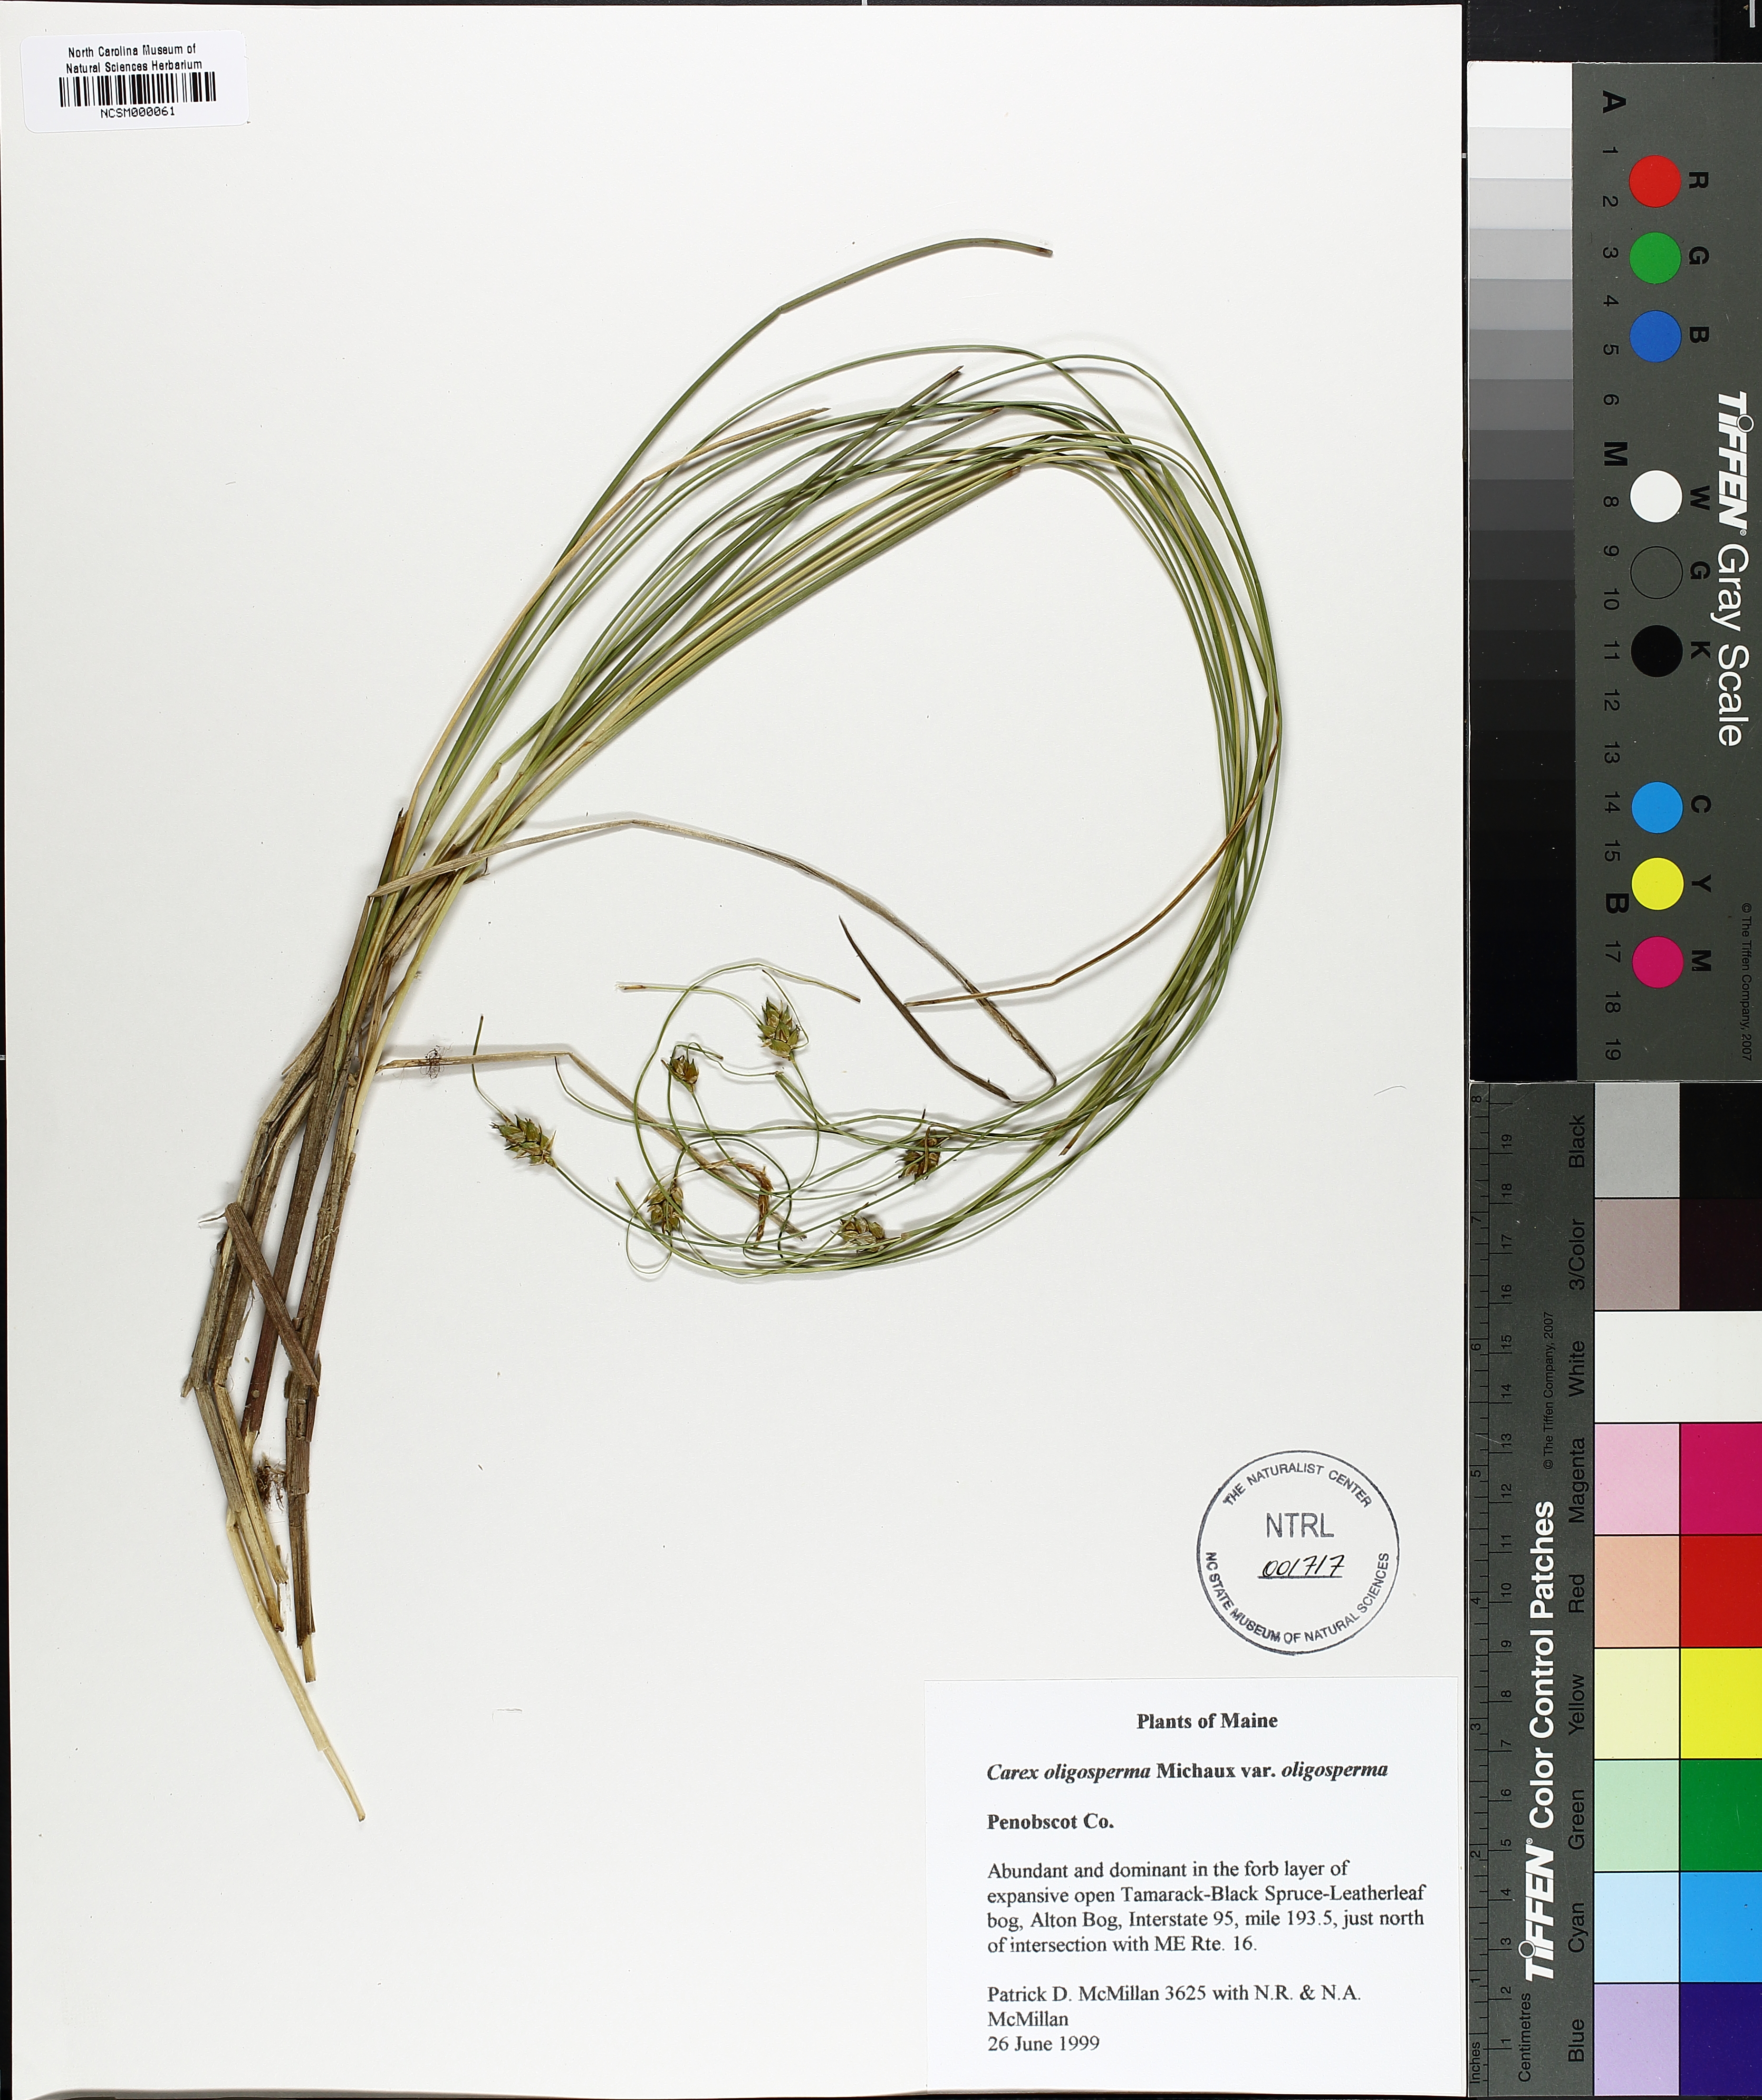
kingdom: Plantae
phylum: Tracheophyta
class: Liliopsida
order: Poales
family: Cyperaceae
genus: Carex
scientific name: Carex oligosperma
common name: Few-seed sedge
